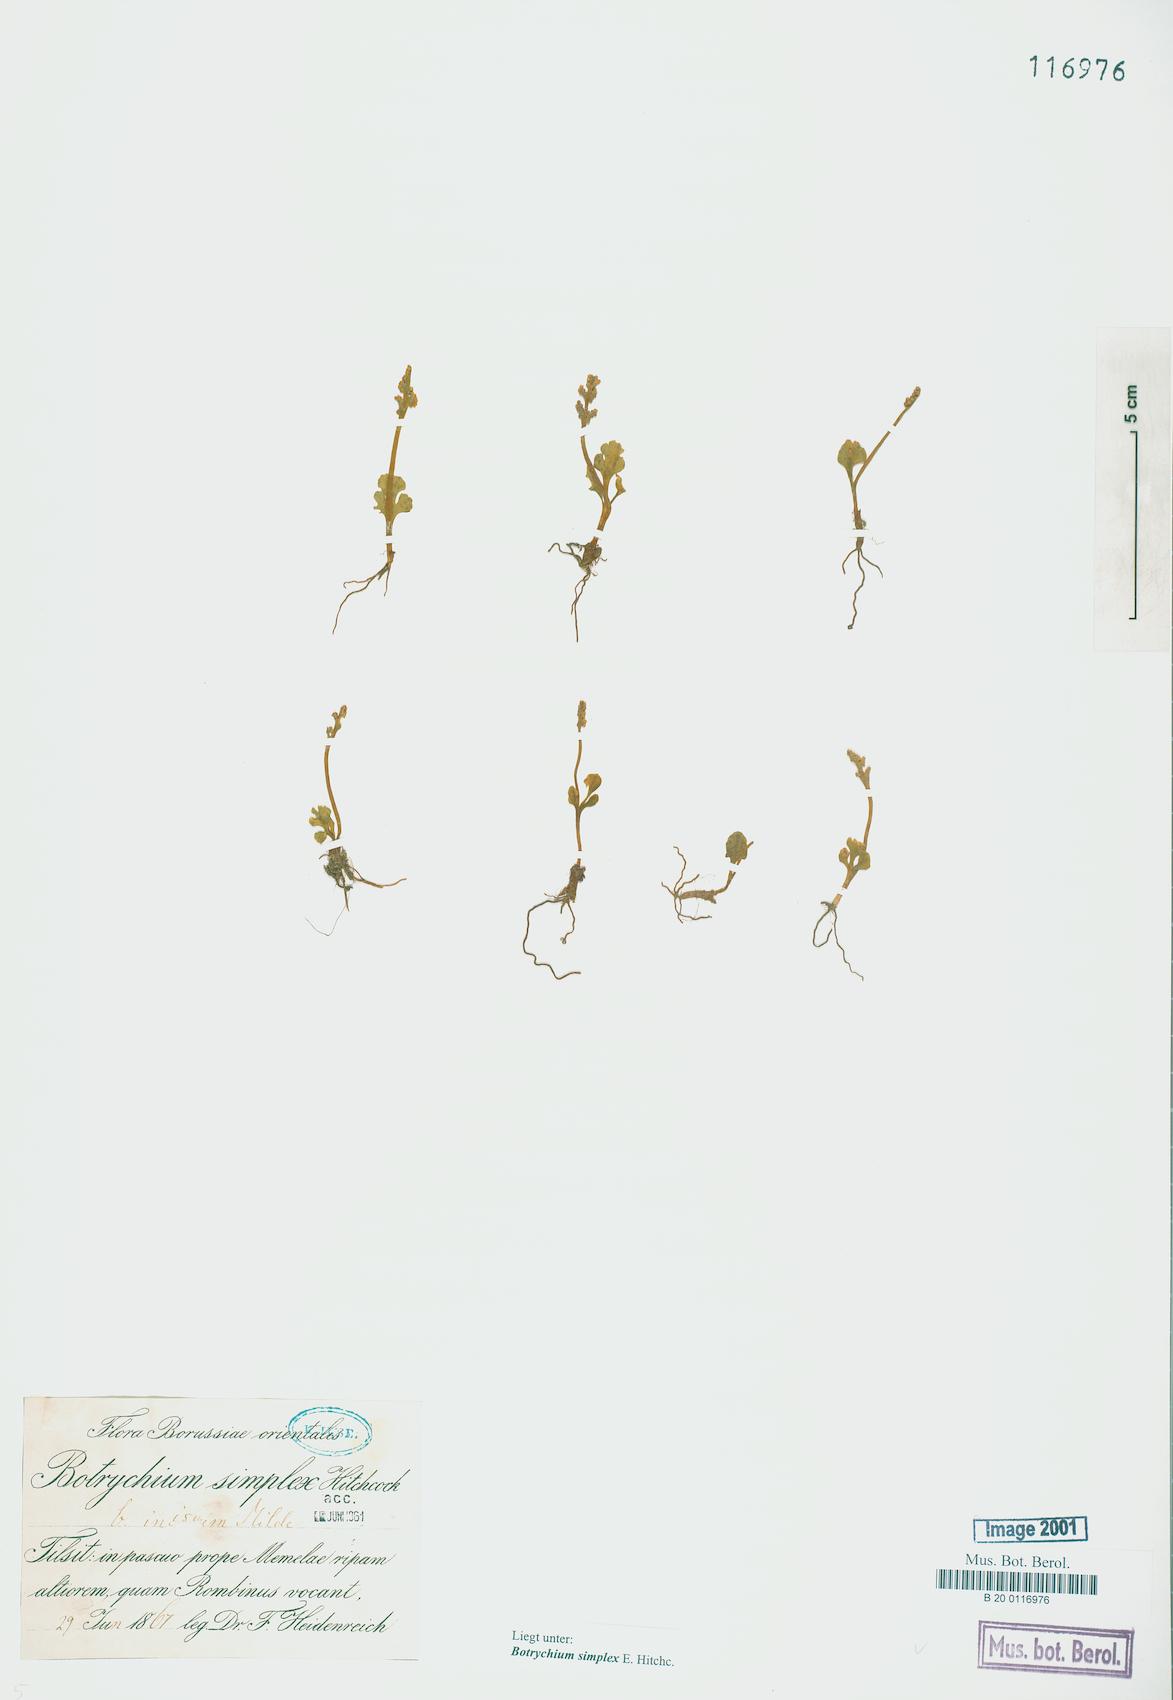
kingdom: Plantae
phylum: Tracheophyta
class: Polypodiopsida
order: Ophioglossales
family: Ophioglossaceae
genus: Botrychium
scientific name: Botrychium simplex
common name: Least moonwort
